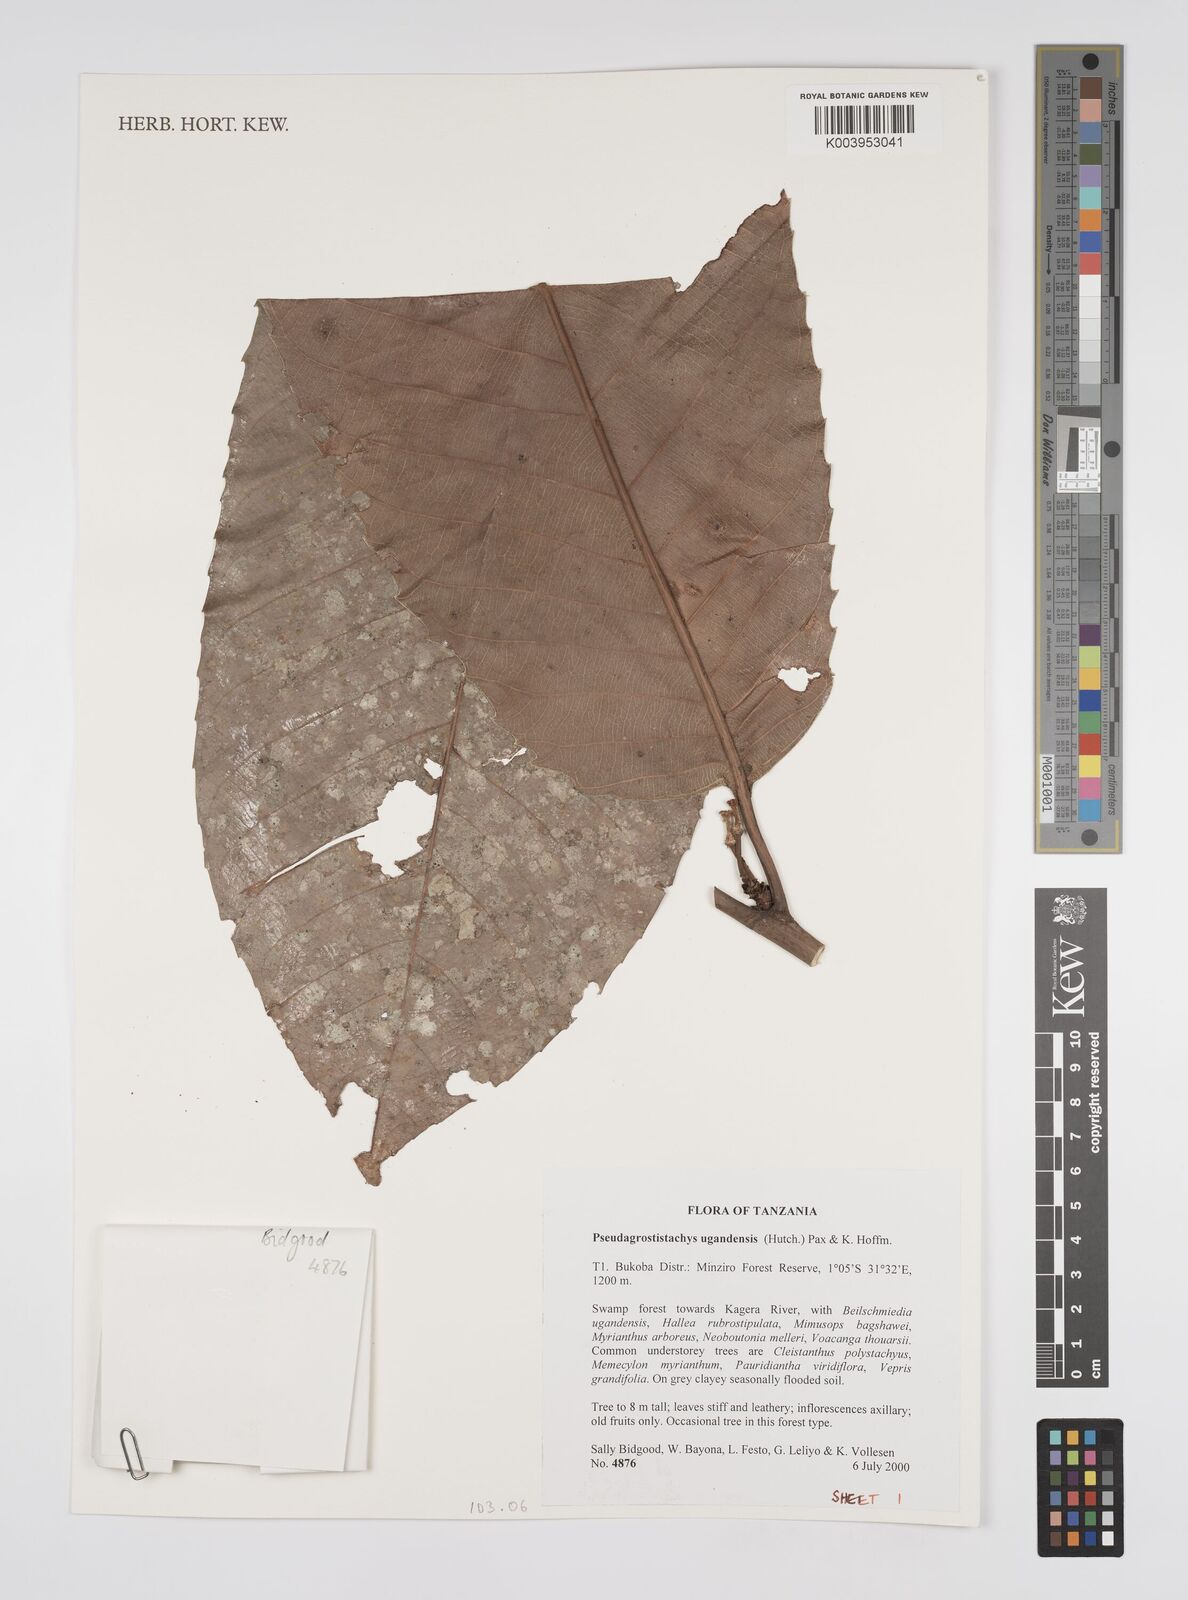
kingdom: Plantae
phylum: Tracheophyta
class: Magnoliopsida
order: Malpighiales
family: Euphorbiaceae
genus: Pseudagrostistachys
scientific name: Pseudagrostistachys ugandensis
